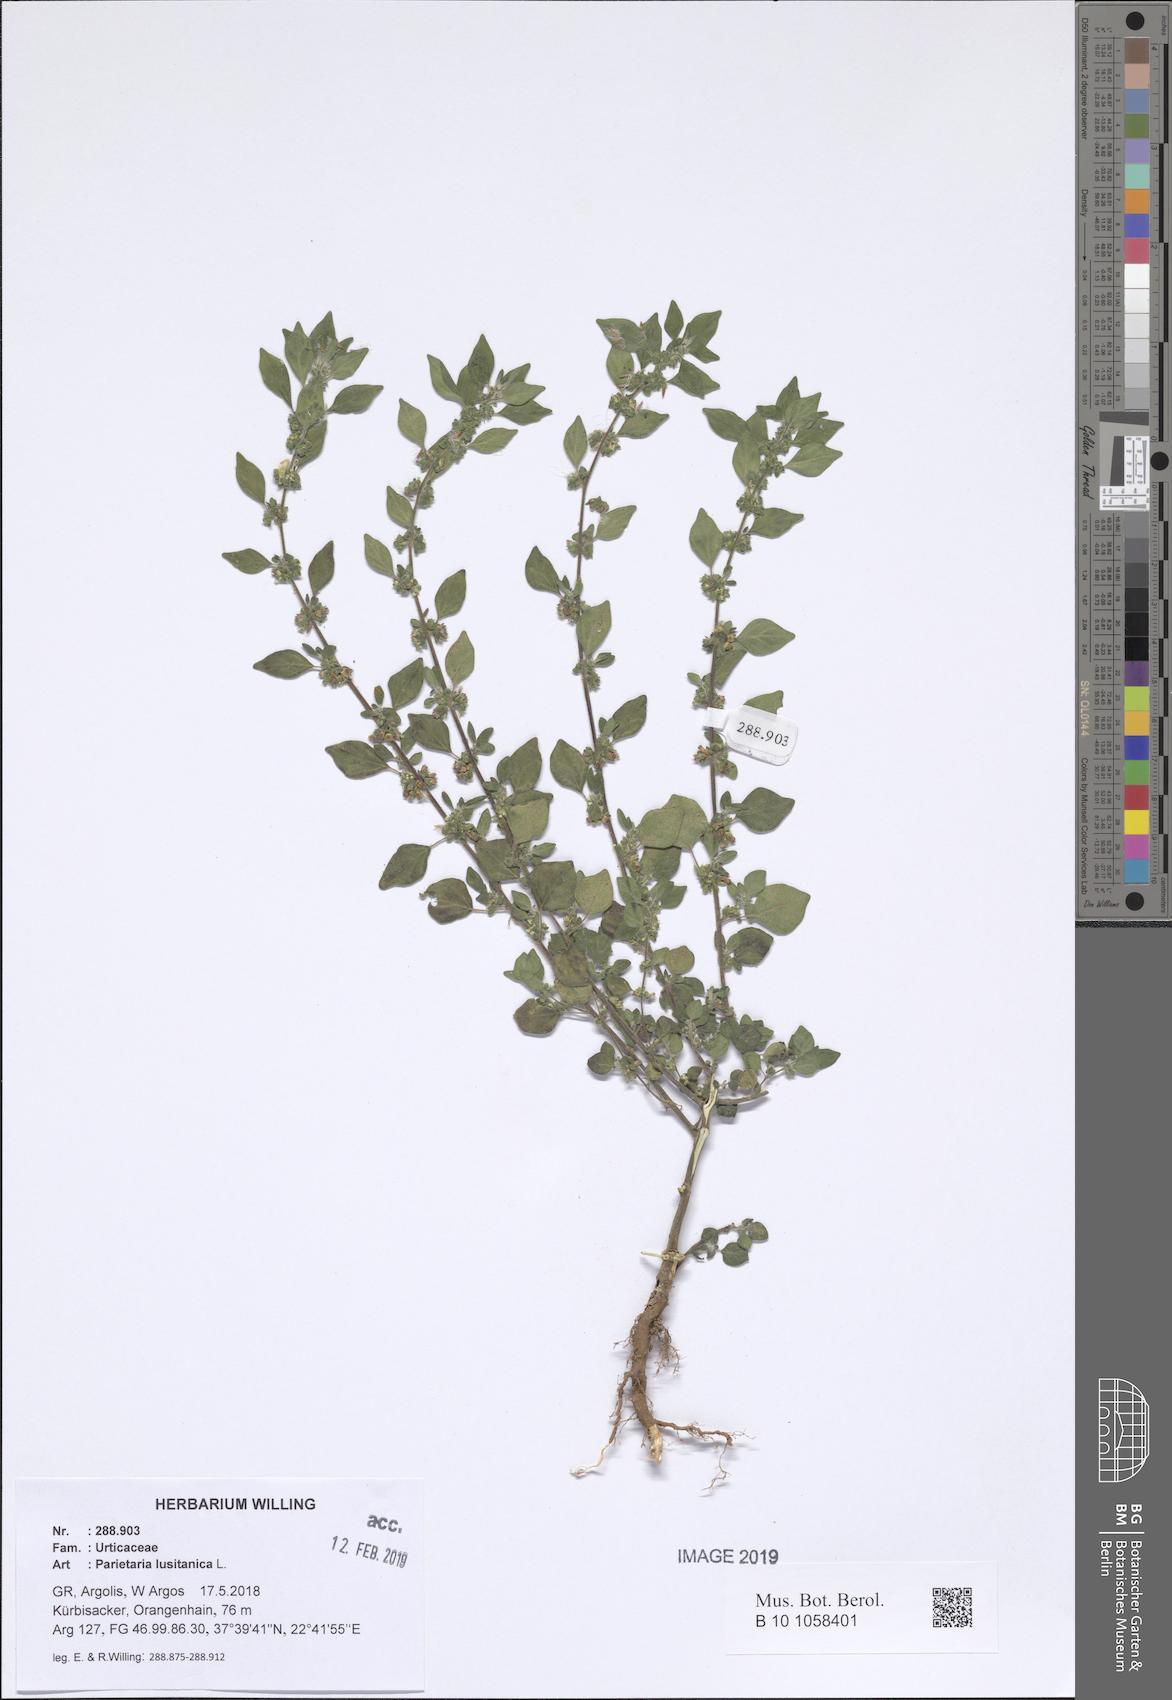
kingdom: Plantae
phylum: Tracheophyta
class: Magnoliopsida
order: Rosales
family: Urticaceae
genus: Parietaria
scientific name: Parietaria lusitanica
